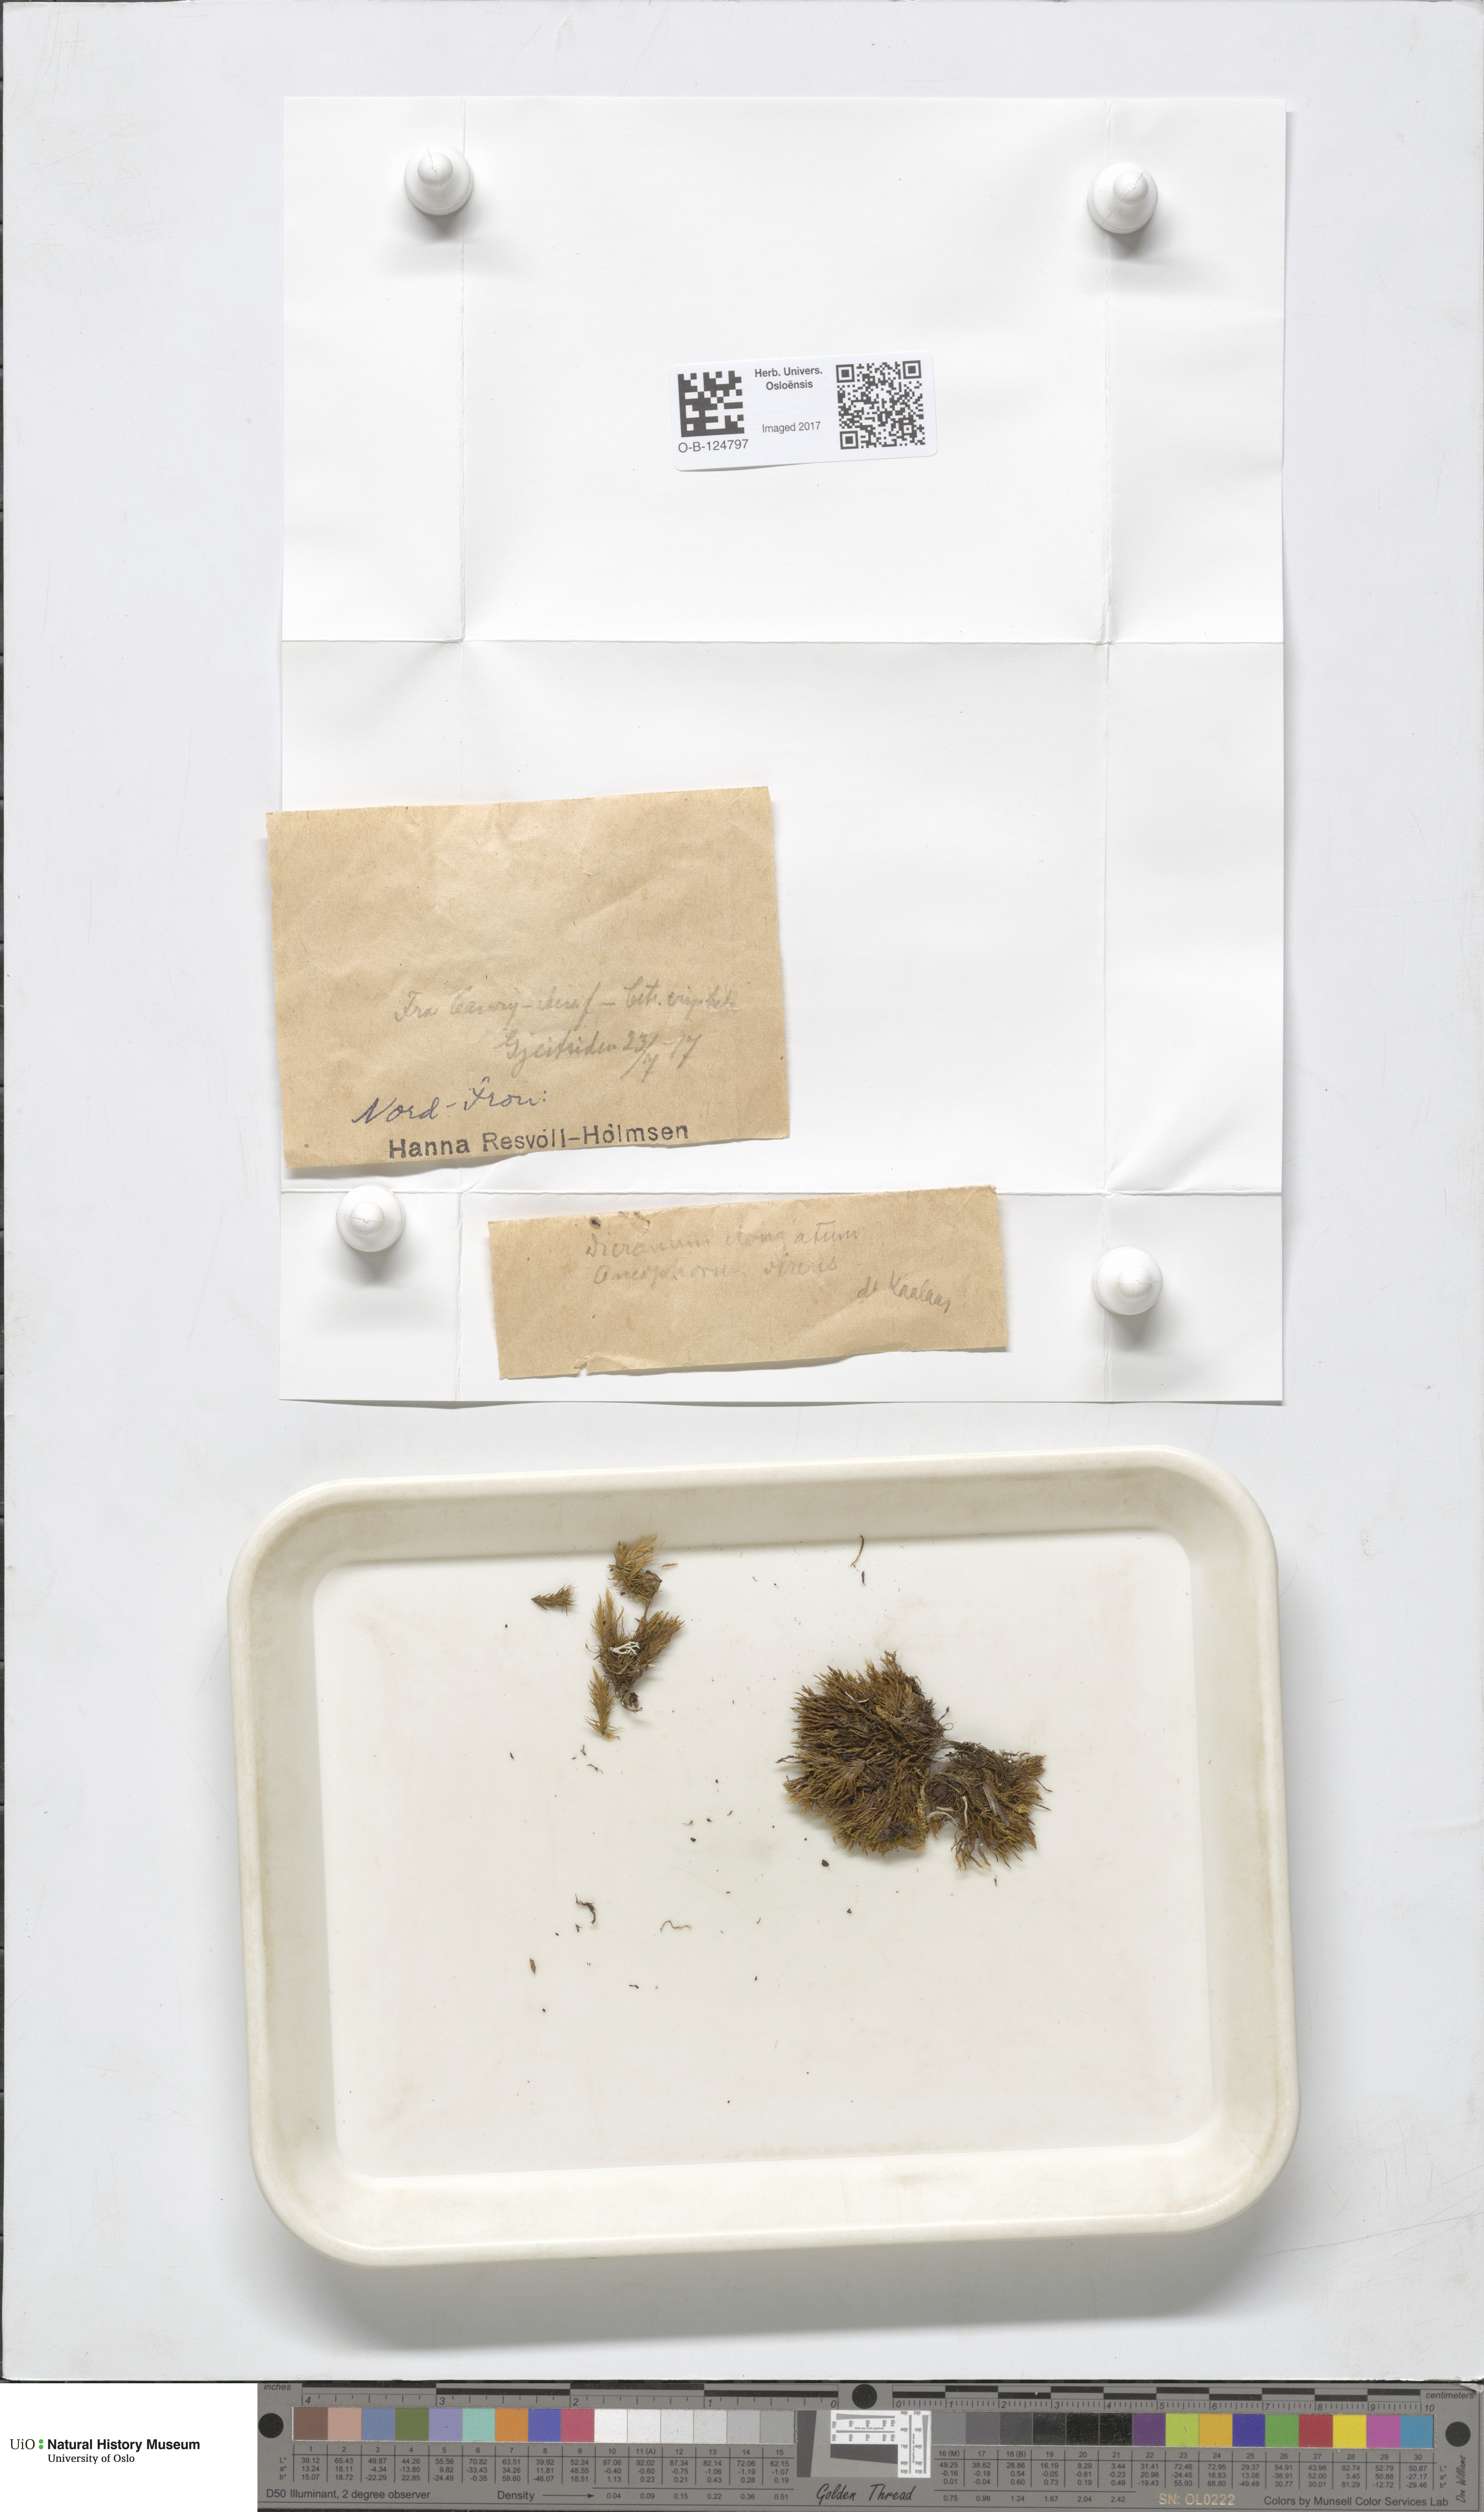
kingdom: Plantae
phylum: Bryophyta
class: Bryopsida
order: Dicranales
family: Dicranaceae
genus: Dicranum
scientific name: Dicranum elongatum
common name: Long-forked broom moss
